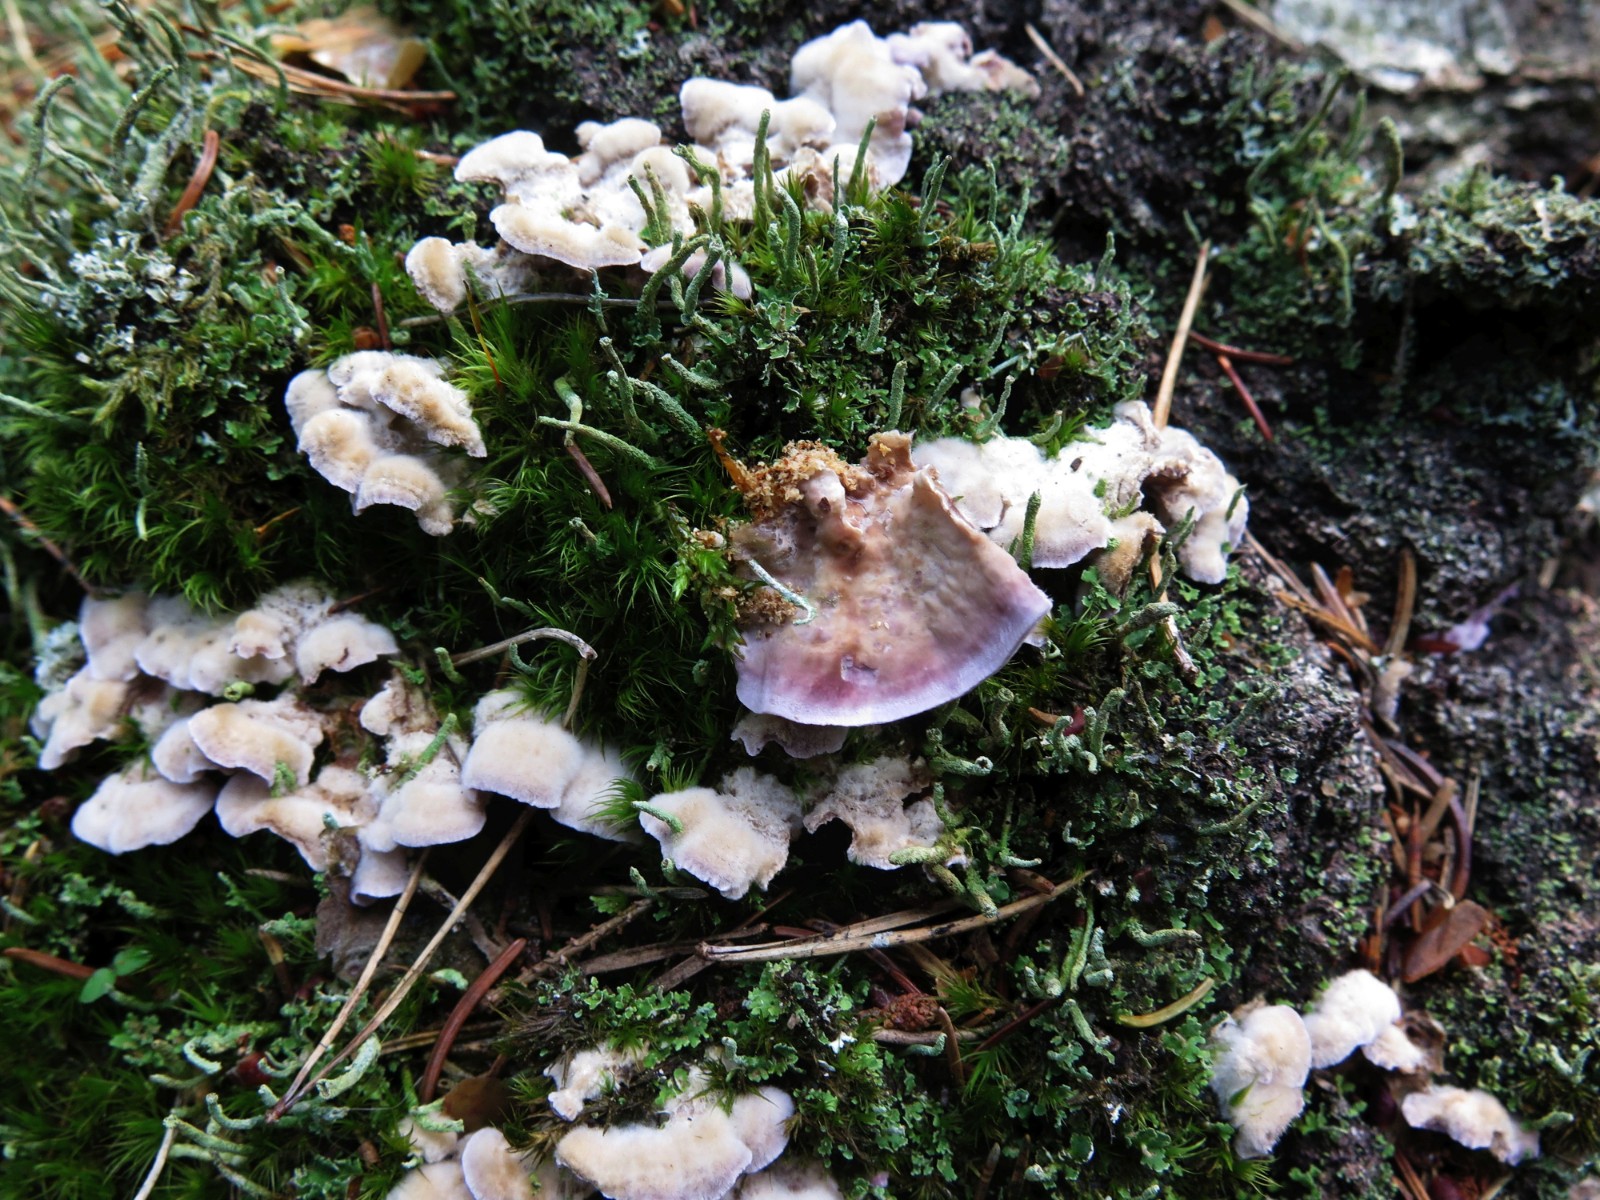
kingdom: Fungi
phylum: Basidiomycota
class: Agaricomycetes
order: Agaricales
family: Cyphellaceae
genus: Chondrostereum
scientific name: Chondrostereum purpureum
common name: purpurlædersvamp
